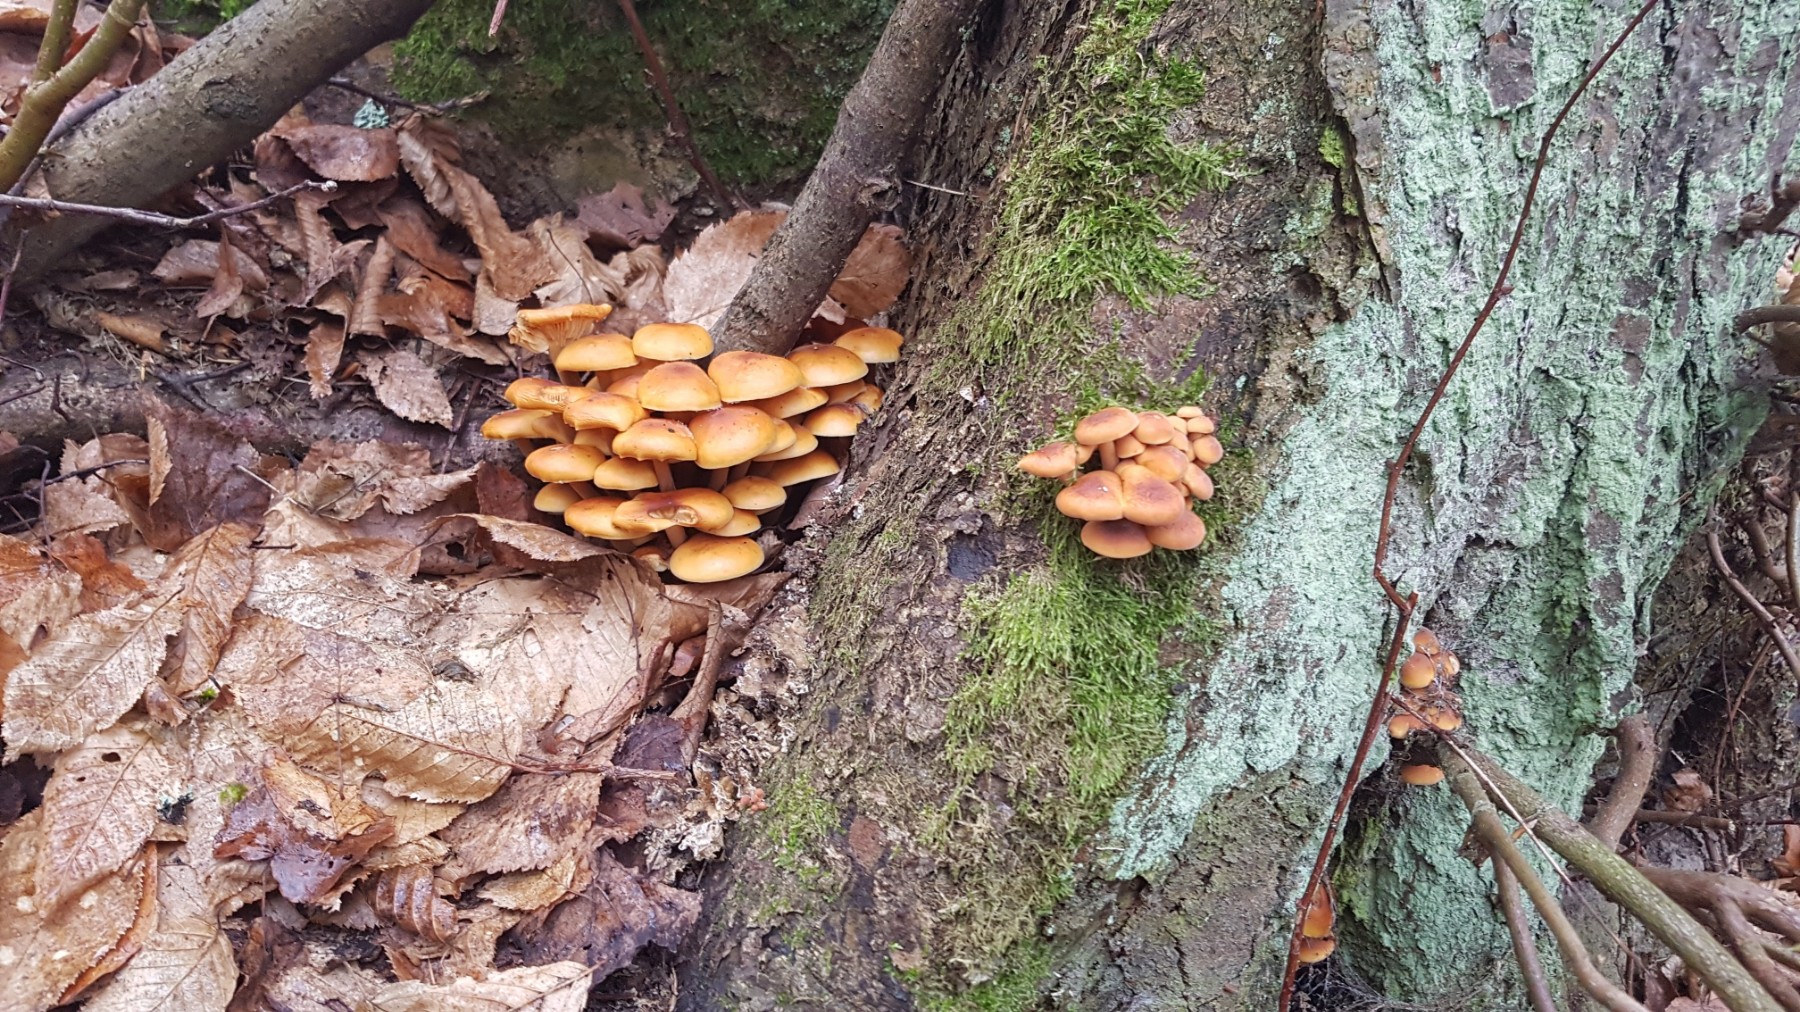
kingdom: Fungi
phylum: Basidiomycota
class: Agaricomycetes
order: Agaricales
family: Physalacriaceae
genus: Flammulina
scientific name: Flammulina
